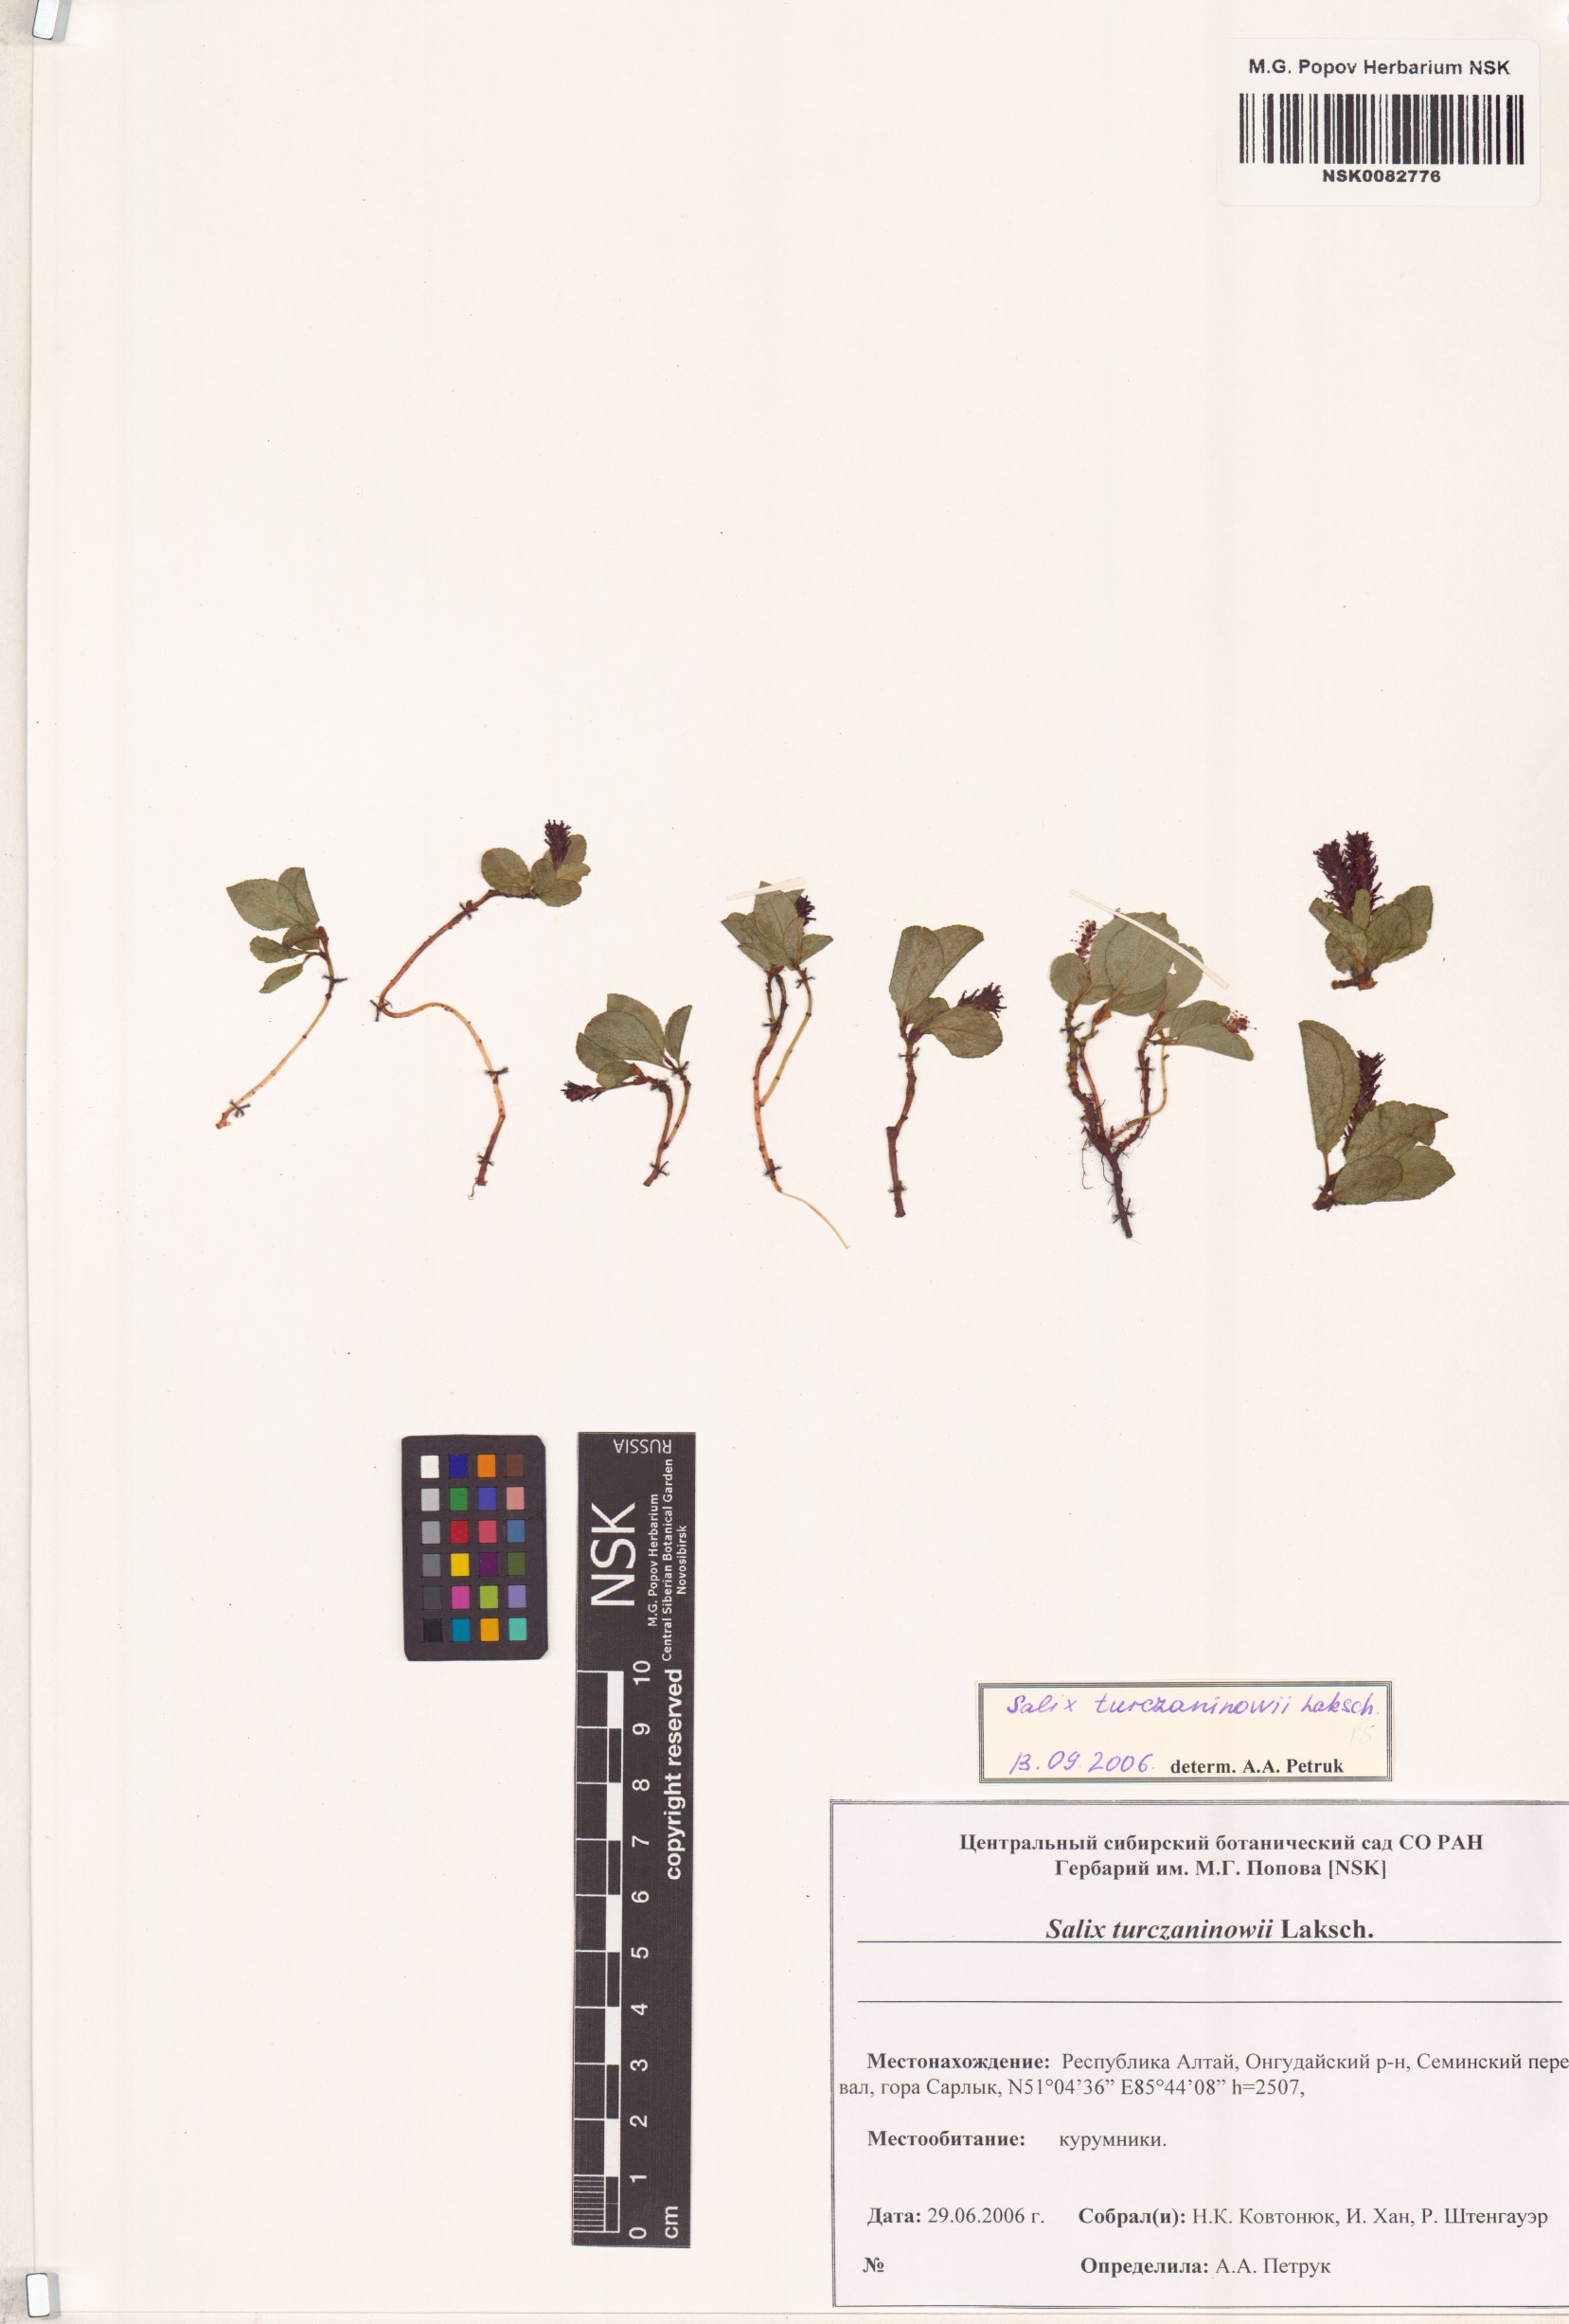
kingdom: Plantae
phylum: Tracheophyta
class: Magnoliopsida
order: Malpighiales
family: Salicaceae
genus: Salix
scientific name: Salix turczaninowii
